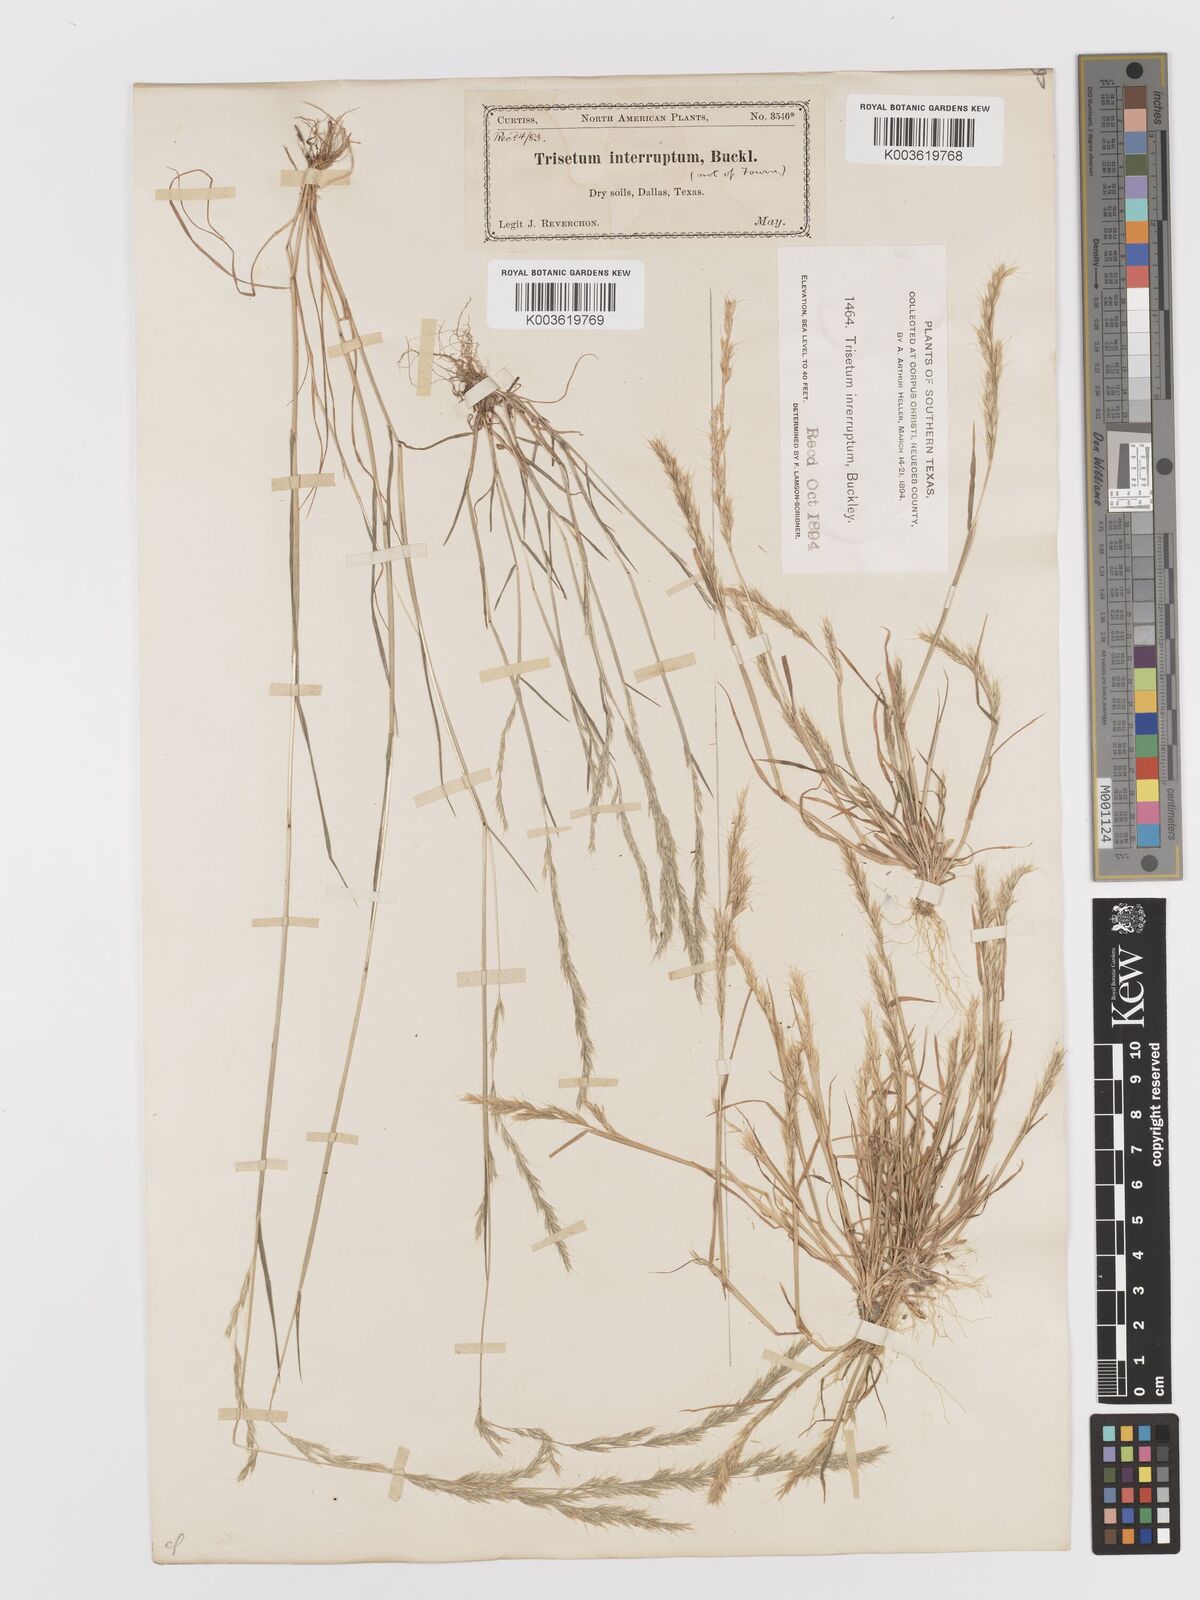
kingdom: Plantae
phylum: Tracheophyta
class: Liliopsida
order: Poales
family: Poaceae
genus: Sphenopholis
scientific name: Sphenopholis interrupta
